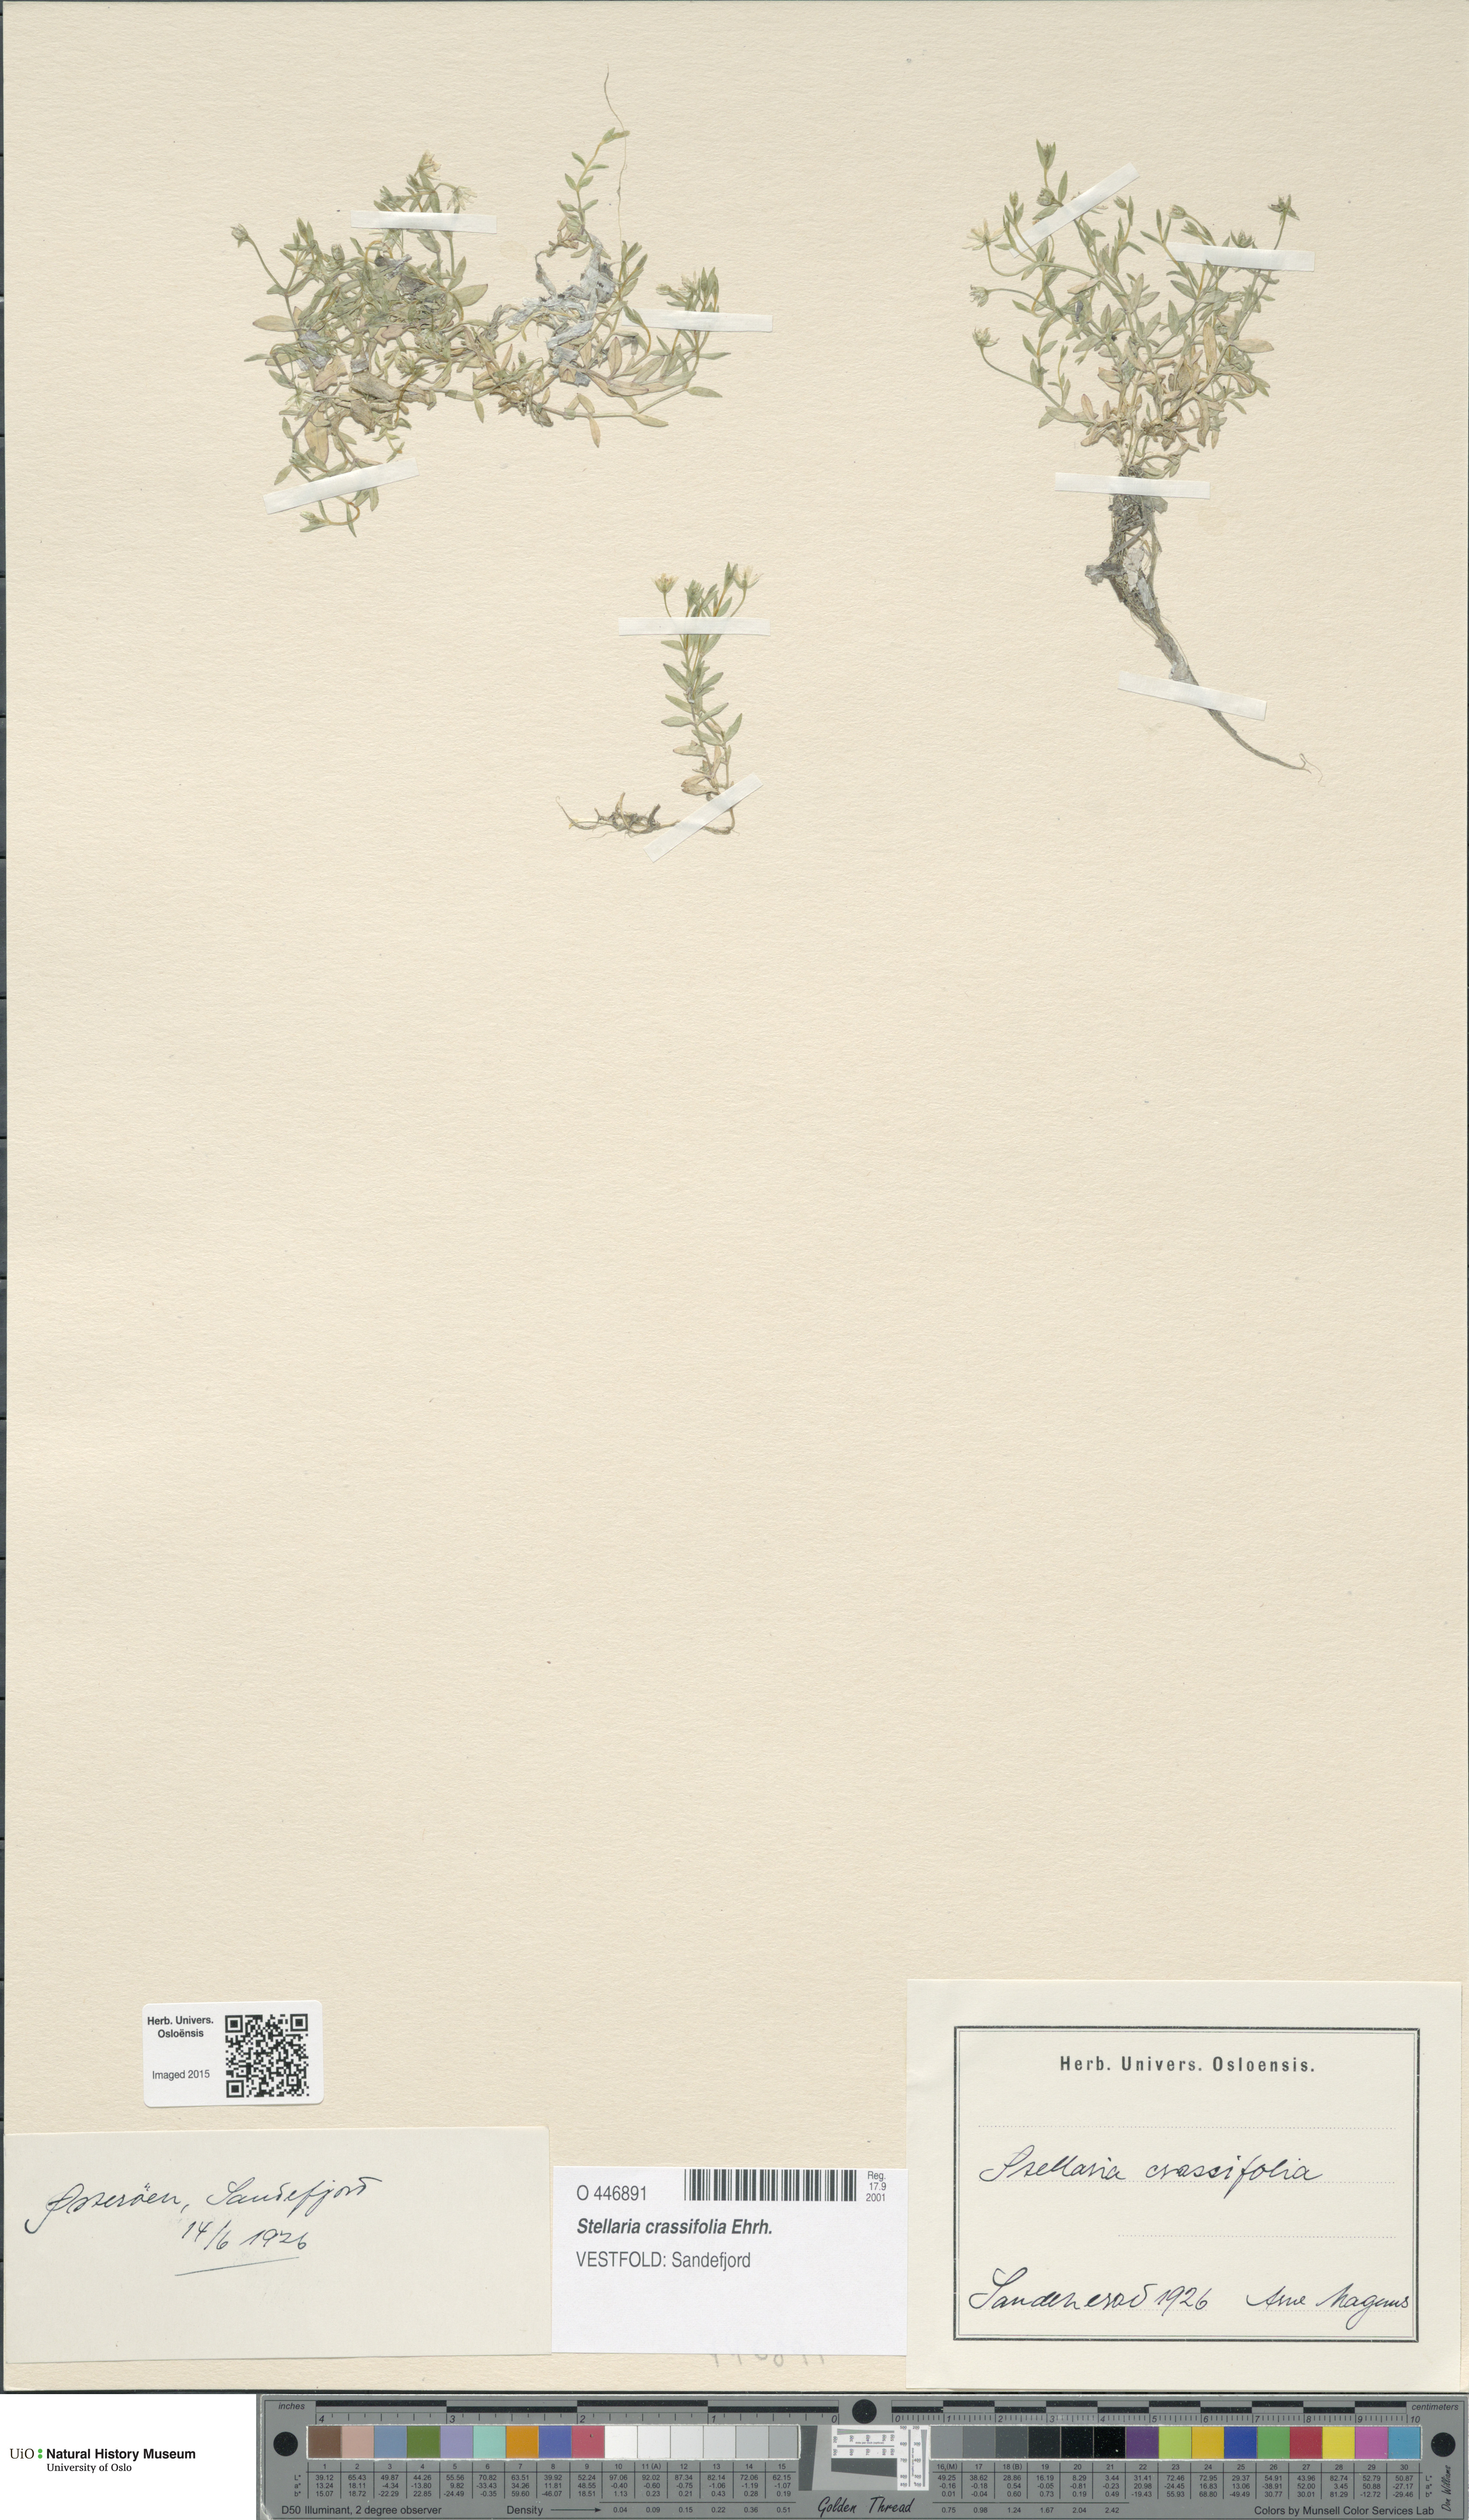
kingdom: Plantae
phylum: Tracheophyta
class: Magnoliopsida
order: Caryophyllales
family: Caryophyllaceae
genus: Stellaria
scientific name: Stellaria crassifolia
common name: Fleshy starwort
